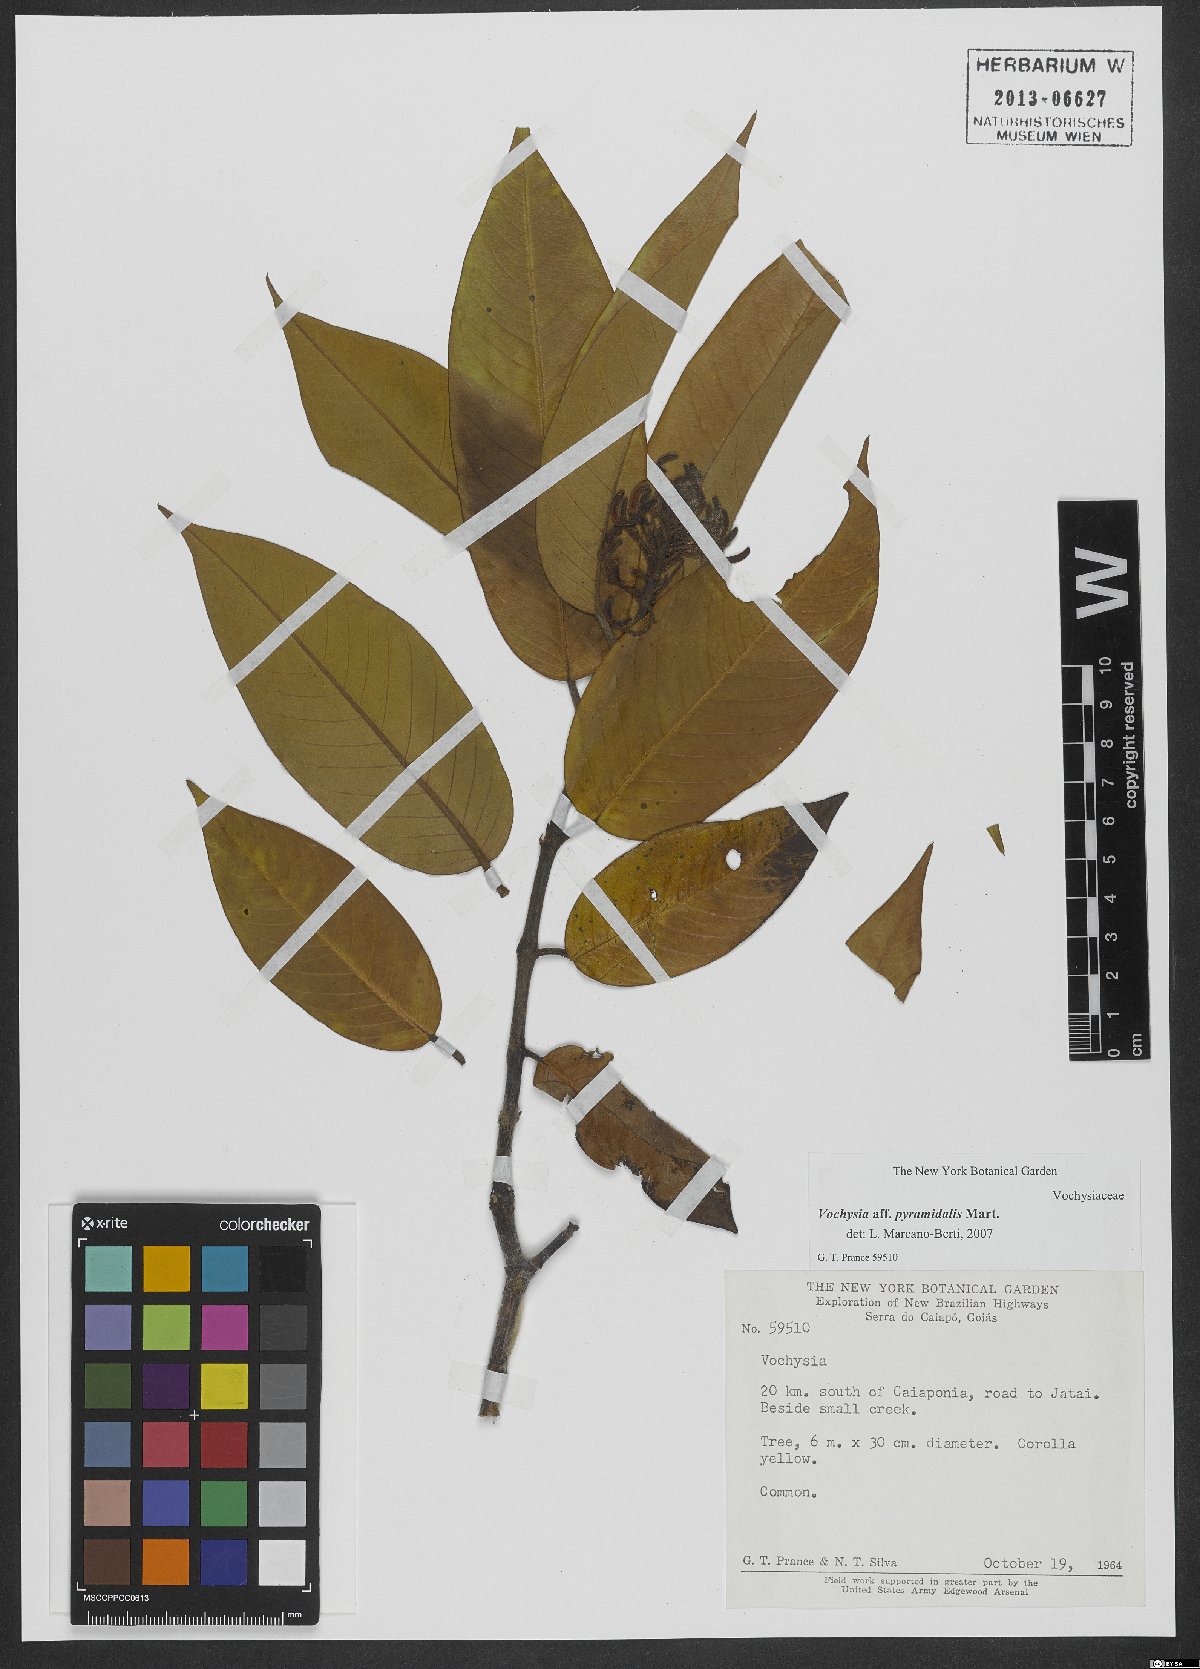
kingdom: Plantae
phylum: Tracheophyta
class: Magnoliopsida
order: Myrtales
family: Vochysiaceae
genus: Vochysia
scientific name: Vochysia pyramidalis
